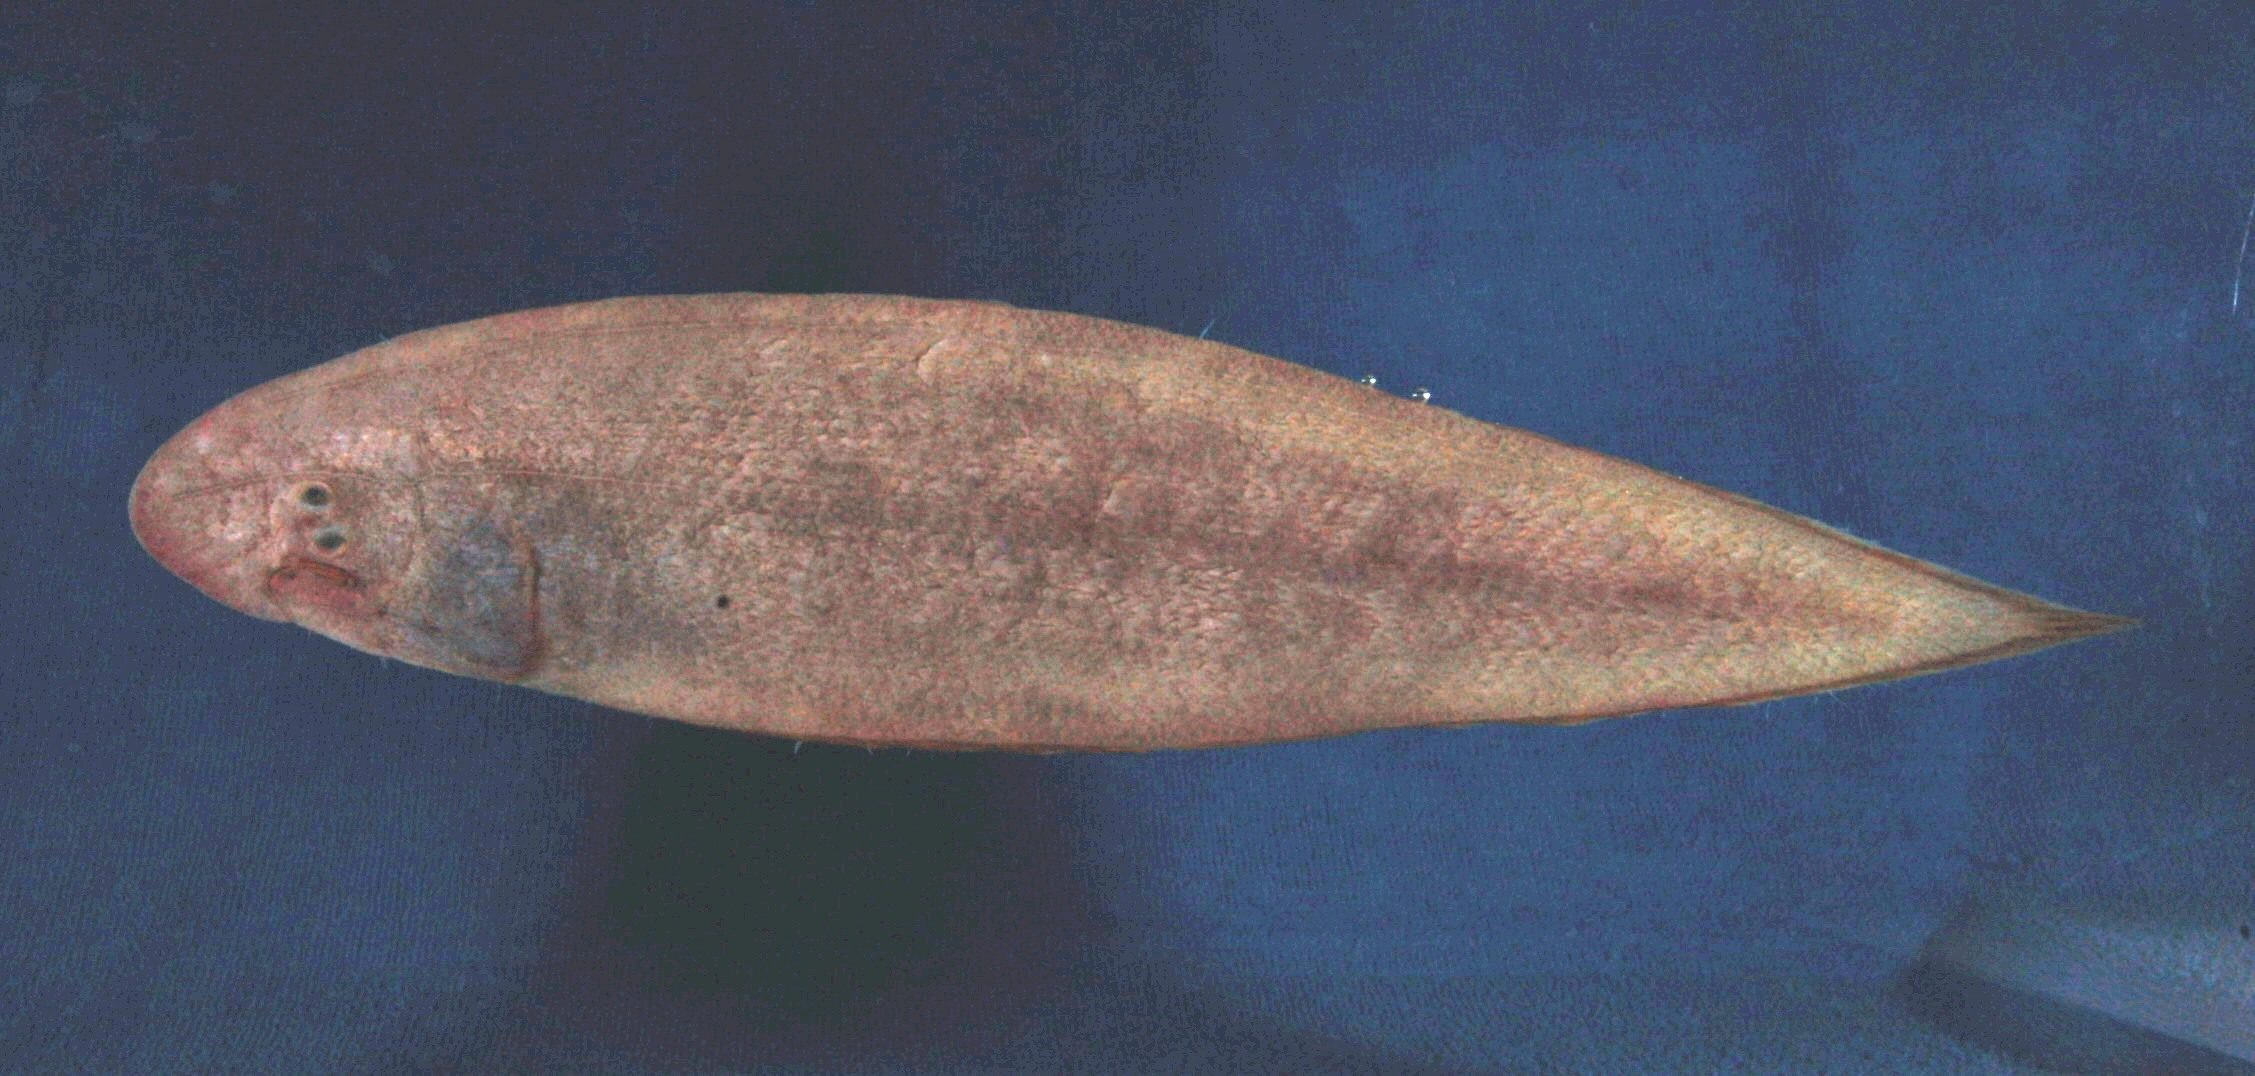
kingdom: Animalia
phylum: Chordata
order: Pleuronectiformes
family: Cynoglossidae
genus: Cynoglossus
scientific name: Cynoglossus attenuatus
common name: Fourline toungefish
